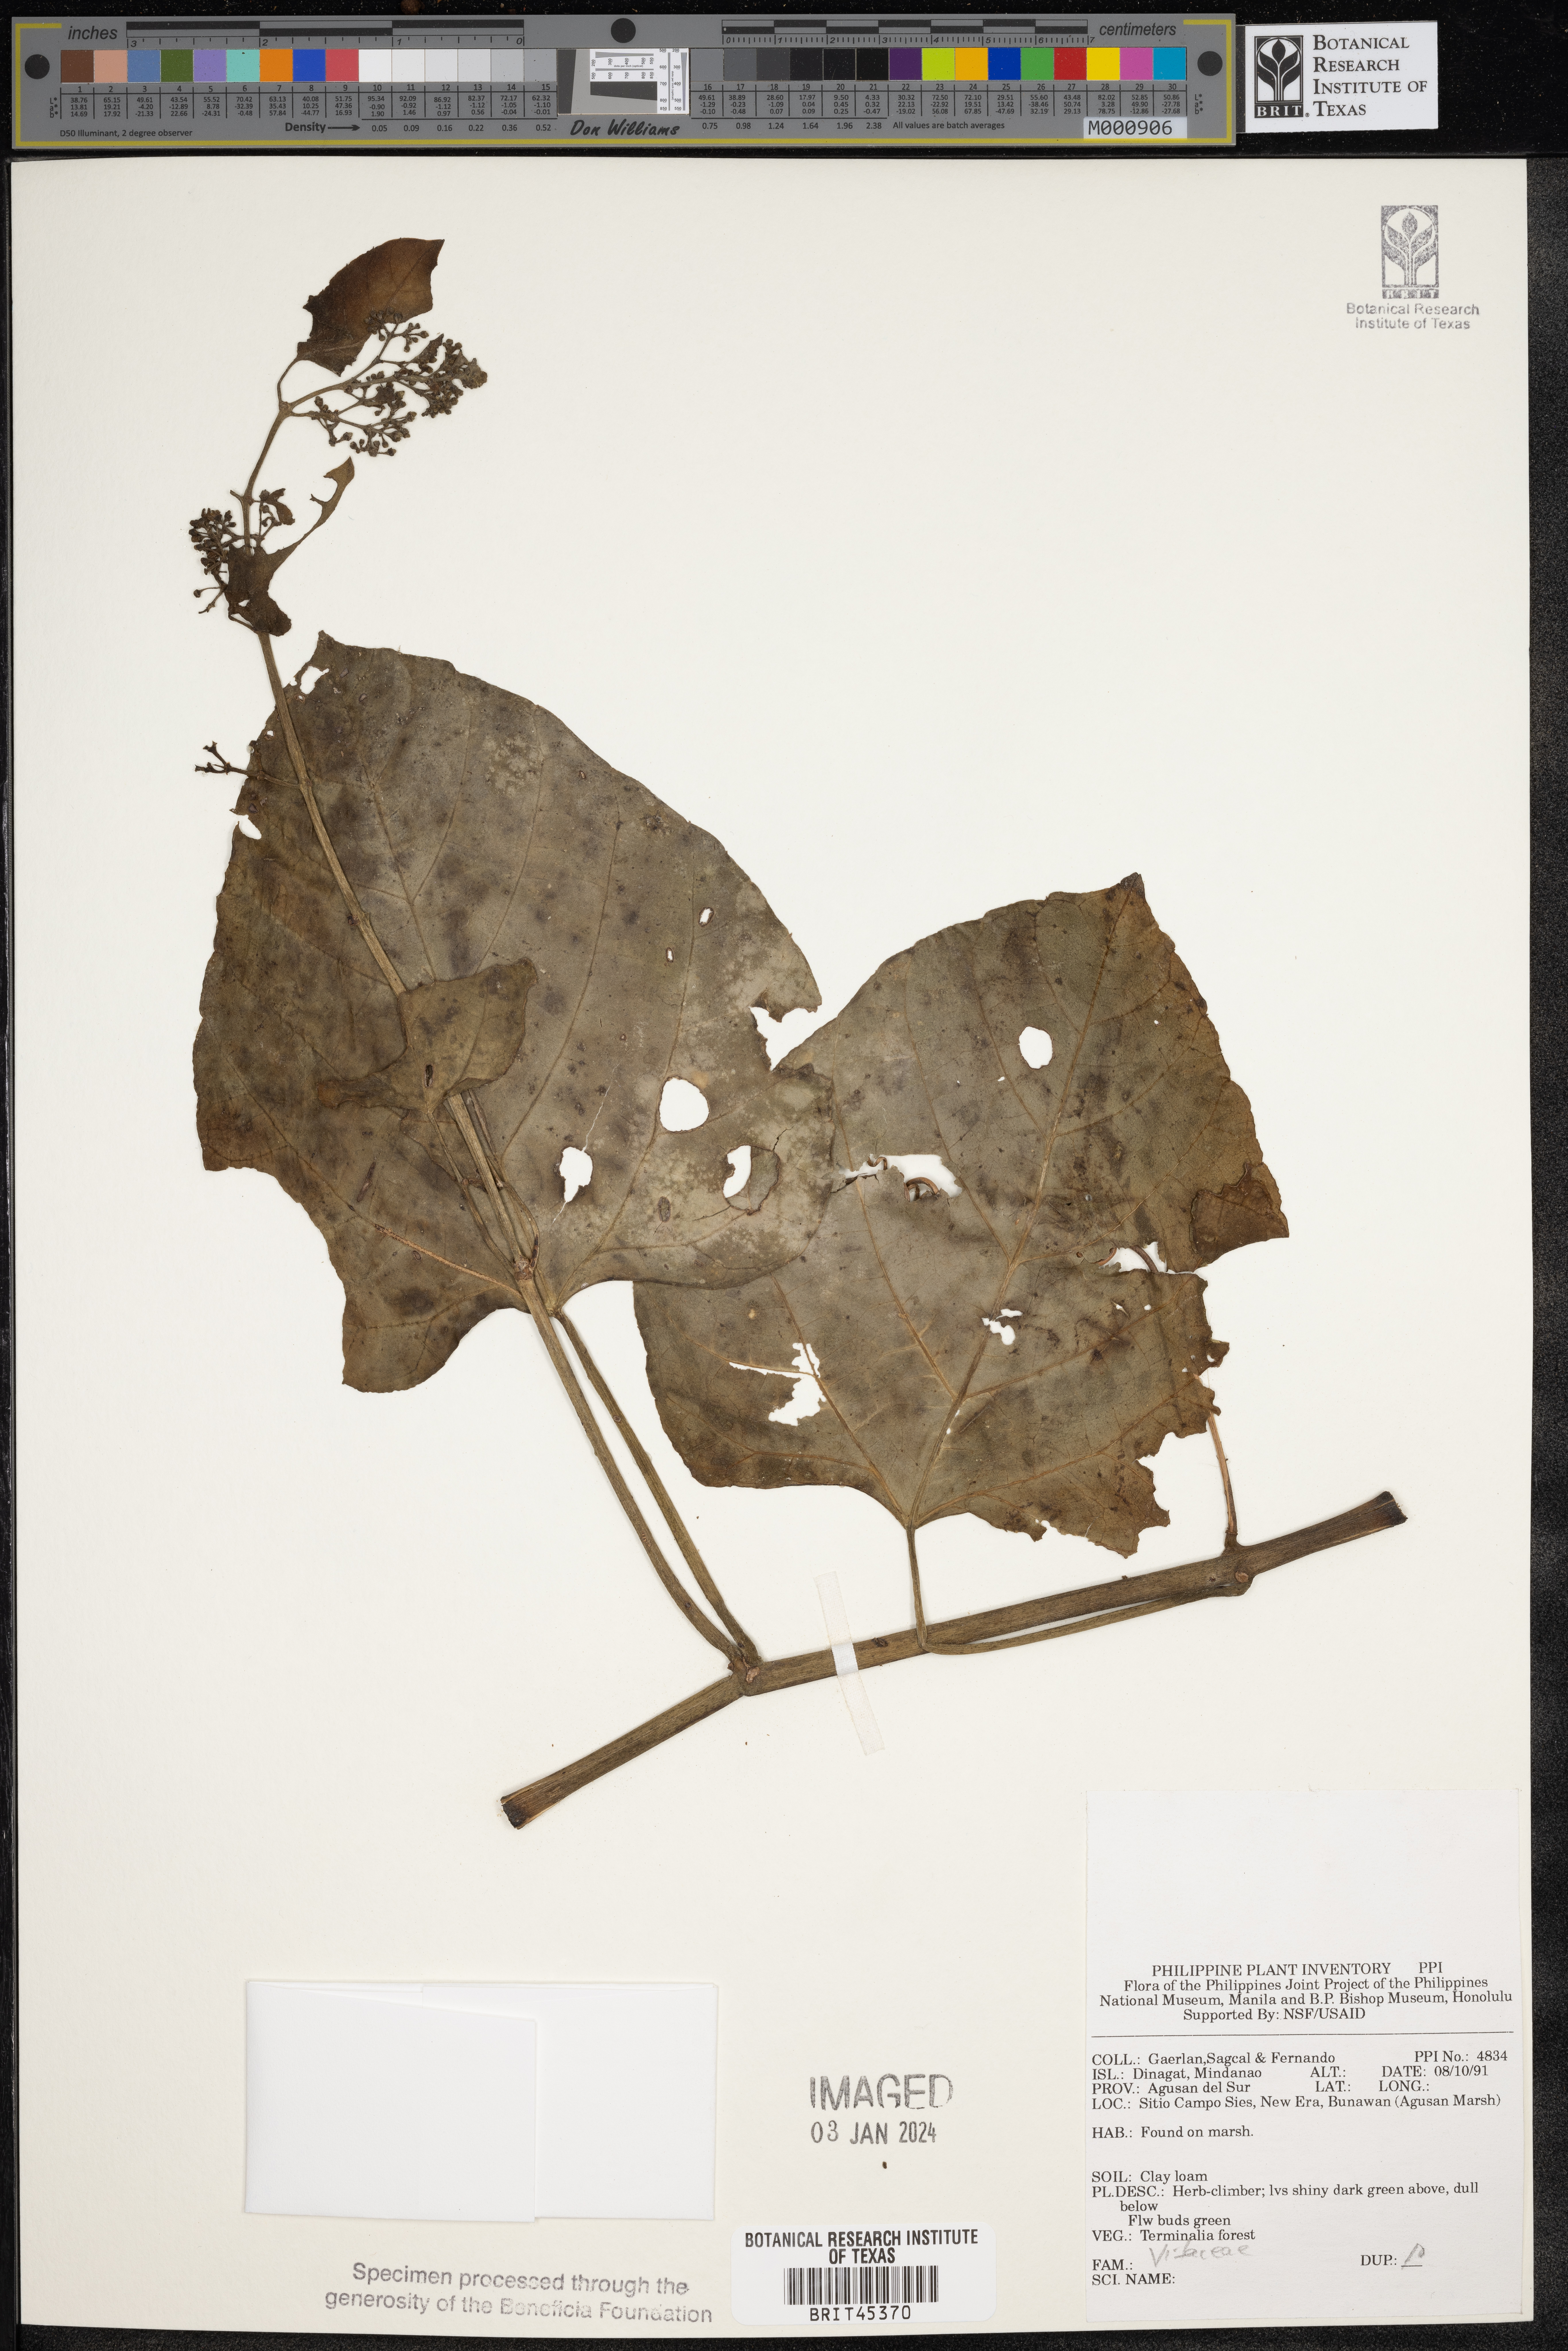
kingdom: Plantae
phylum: Tracheophyta
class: Magnoliopsida
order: Vitales
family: Vitaceae
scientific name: Vitaceae
